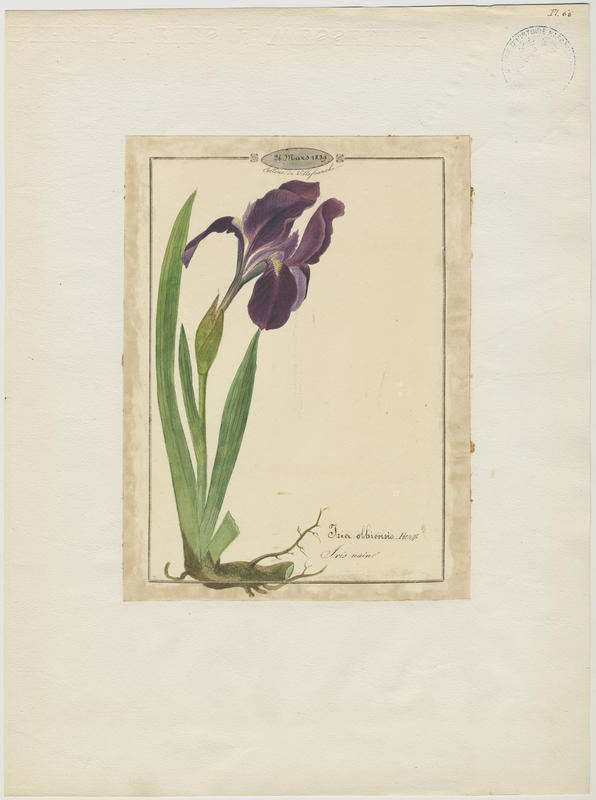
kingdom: Plantae
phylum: Tracheophyta
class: Liliopsida
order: Asparagales
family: Iridaceae
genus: Iris
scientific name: Iris lutescens
